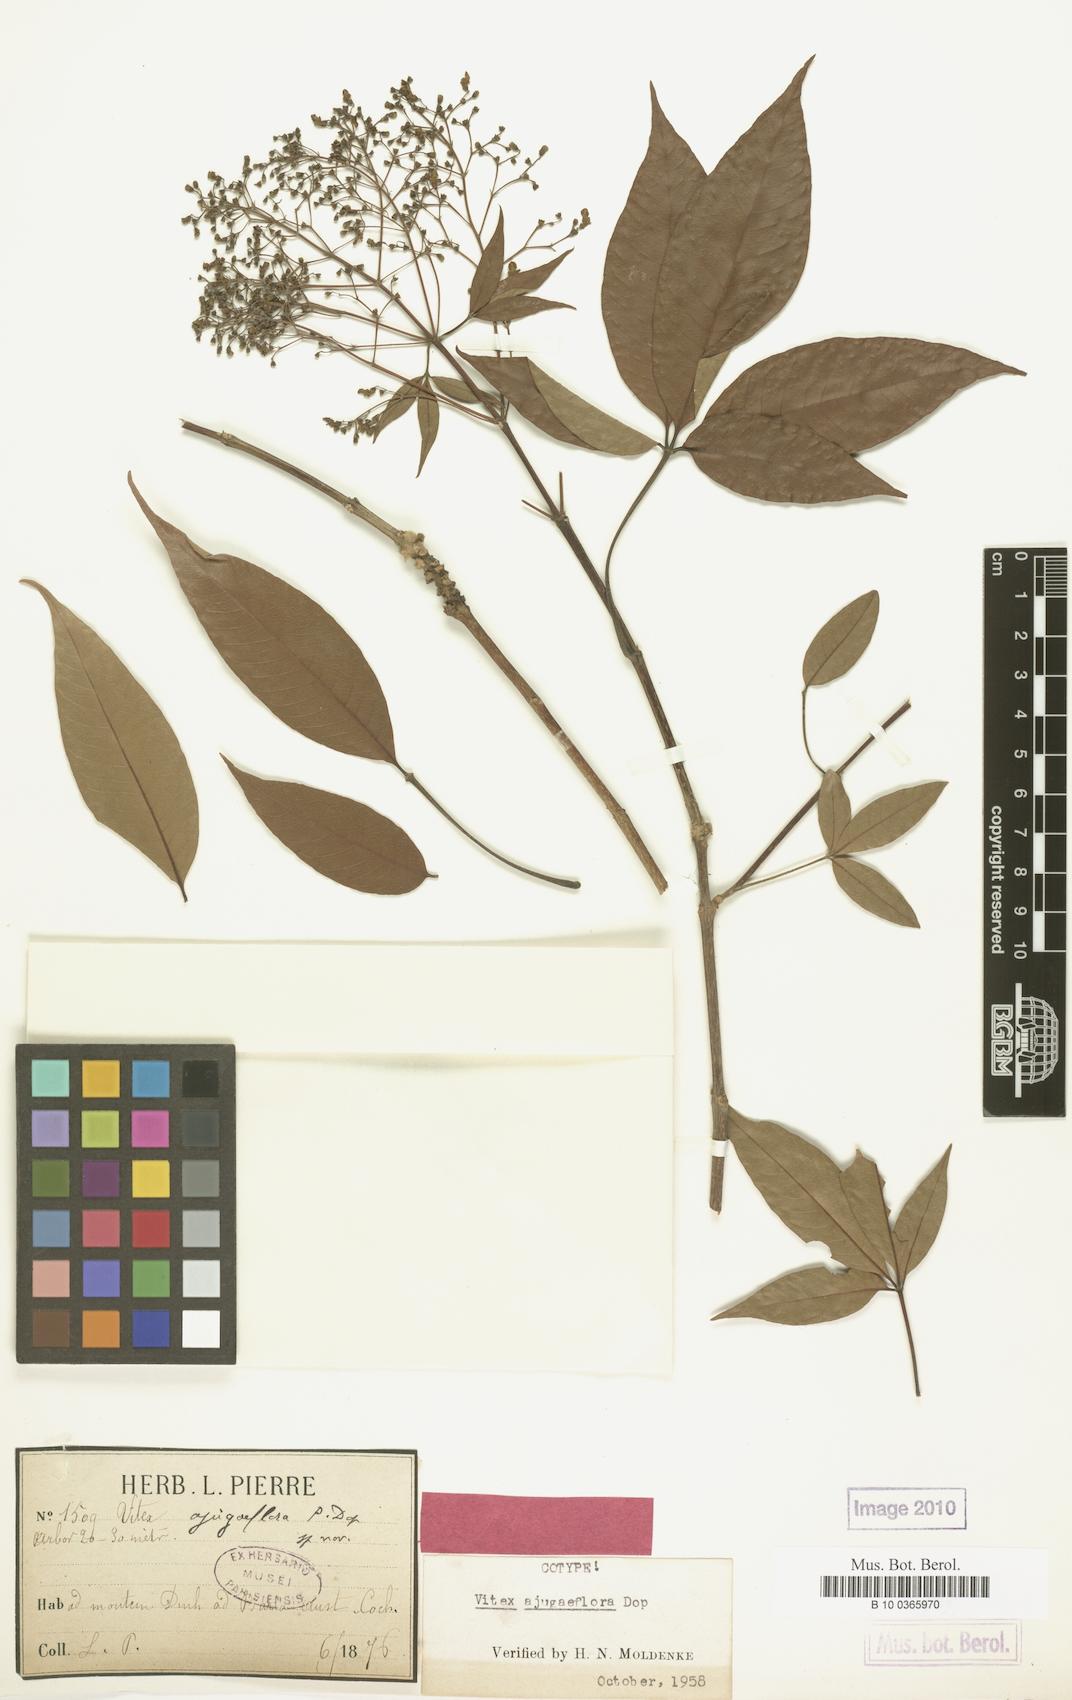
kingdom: Plantae
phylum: Tracheophyta
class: Magnoliopsida
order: Lamiales
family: Lamiaceae
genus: Vitex
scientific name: Vitex ajugiflora
